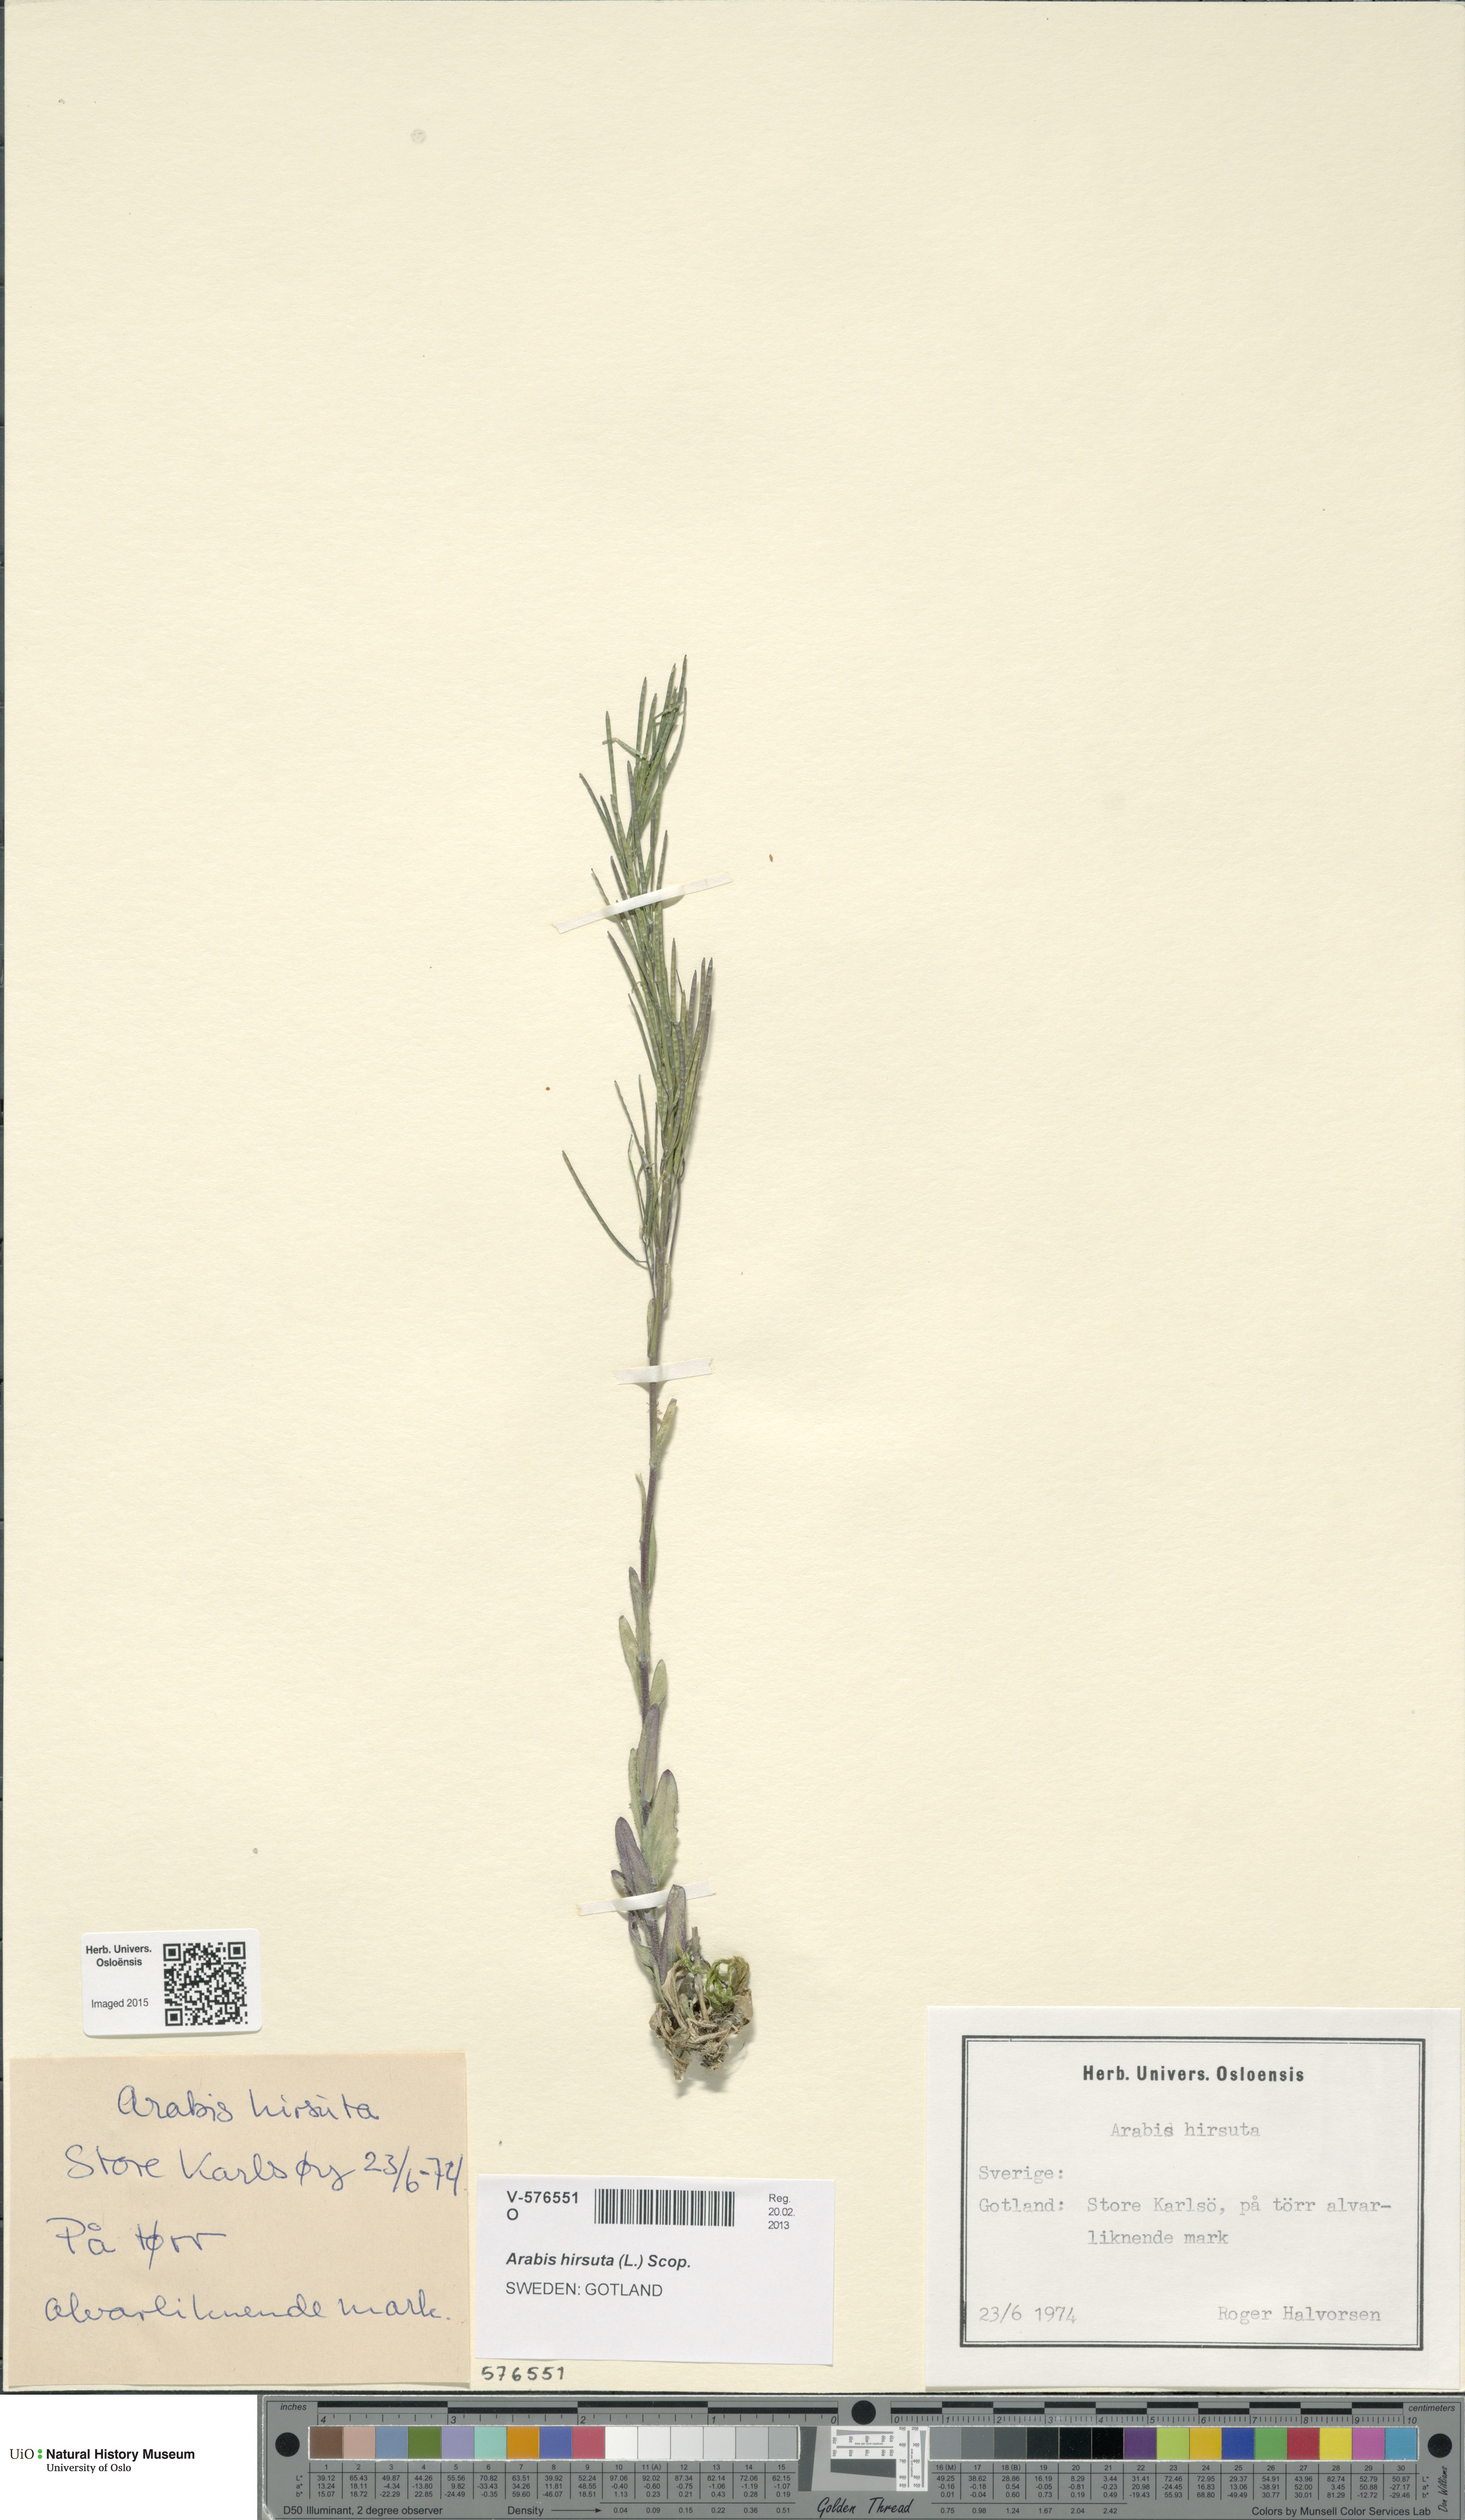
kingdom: Plantae
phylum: Tracheophyta
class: Magnoliopsida
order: Brassicales
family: Brassicaceae
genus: Arabis
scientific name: Arabis hirsuta
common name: Hairy rock-cress
